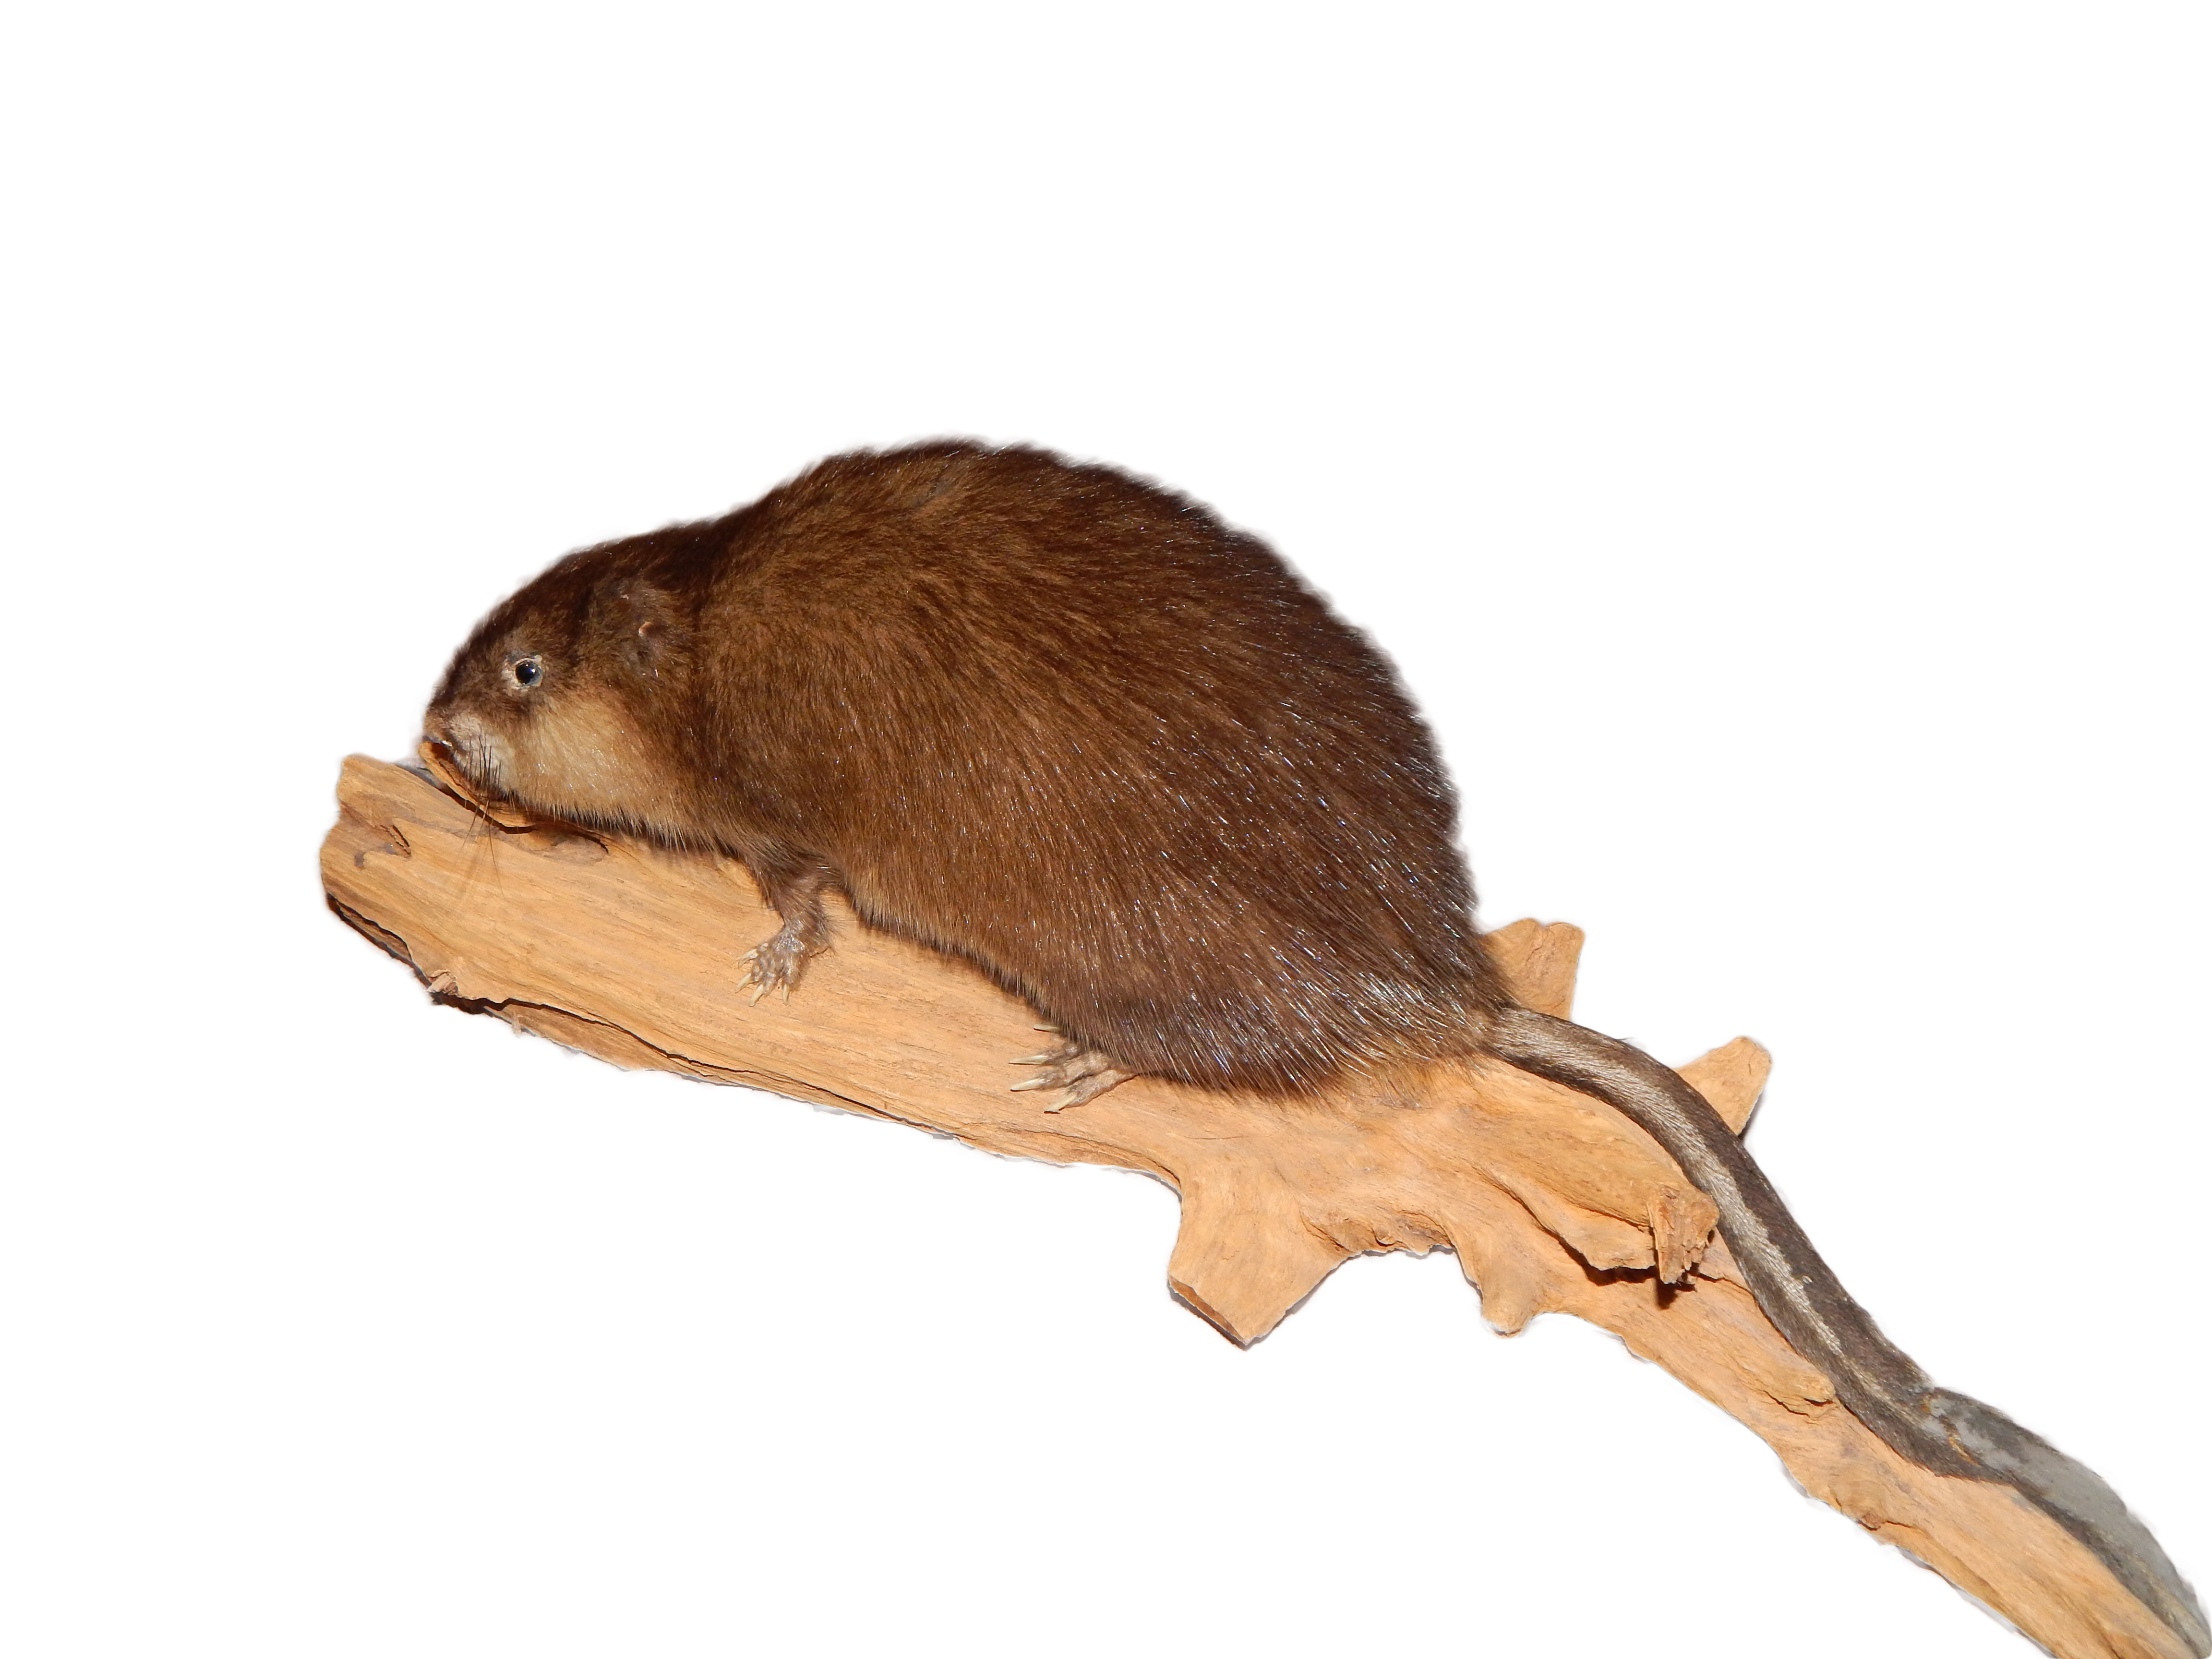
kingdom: Animalia
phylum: Chordata
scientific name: Chordata
